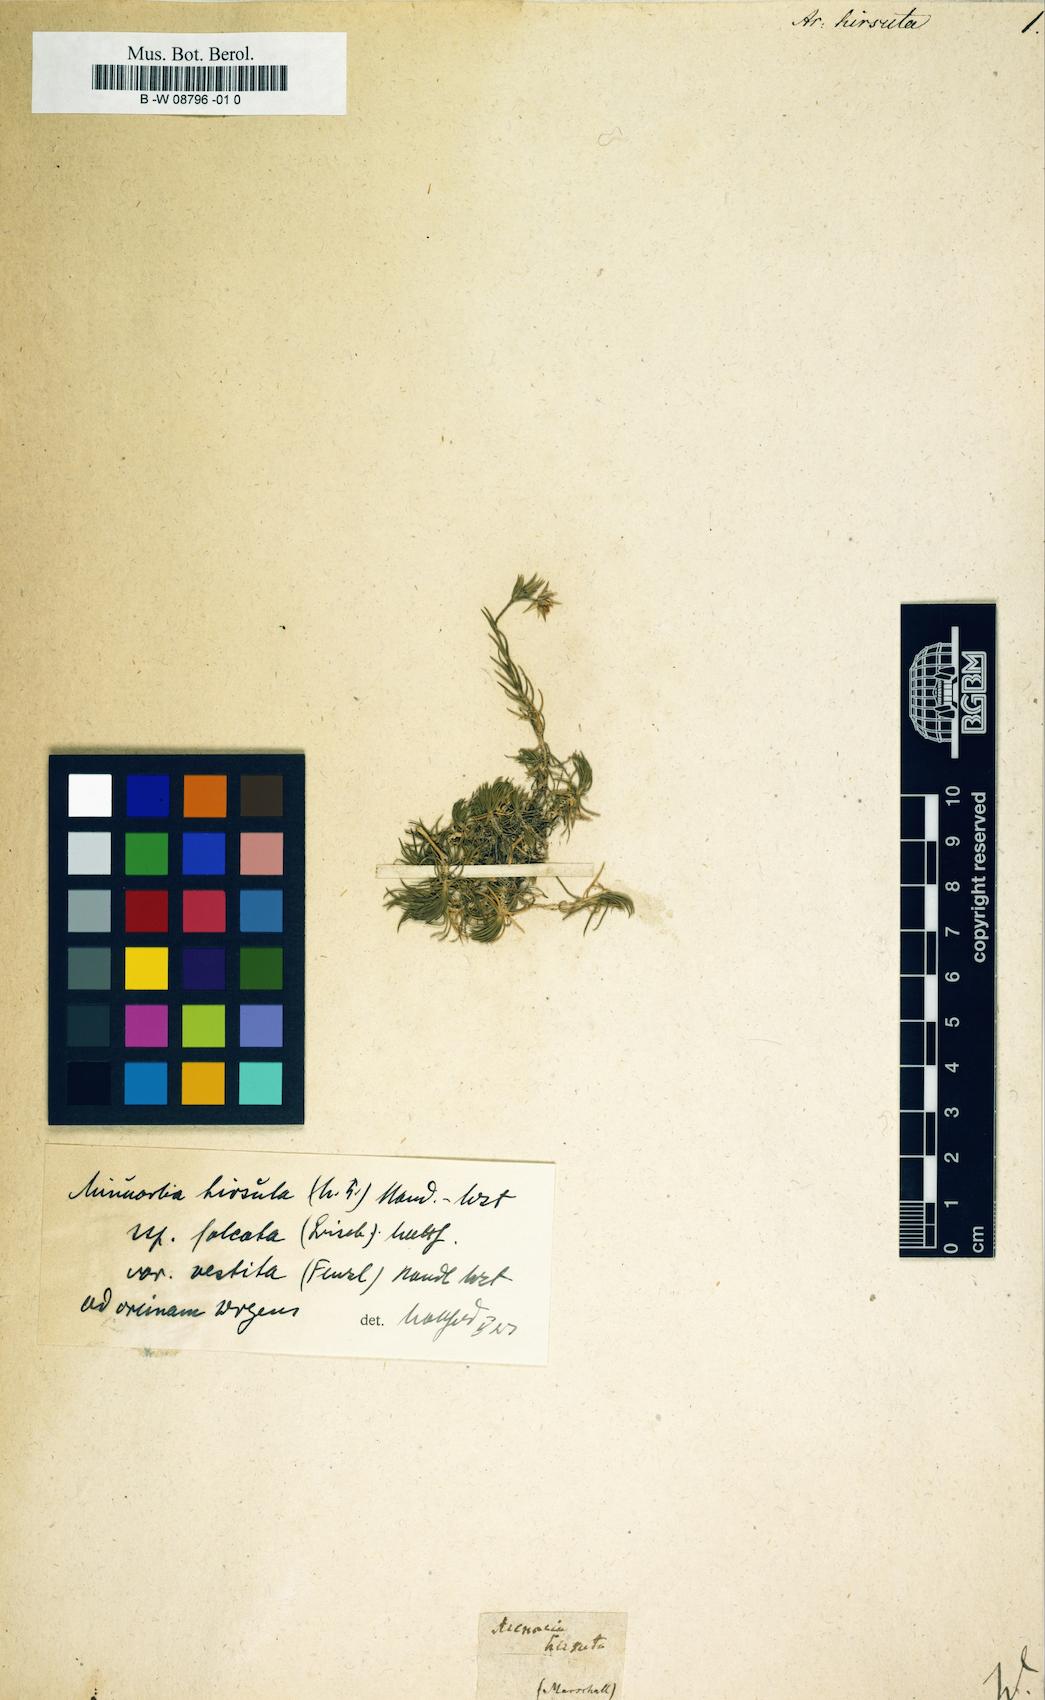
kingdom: Plantae
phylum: Tracheophyta
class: Magnoliopsida
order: Caryophyllales
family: Caryophyllaceae
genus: Minuartia
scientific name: Minuartia hirsuta
